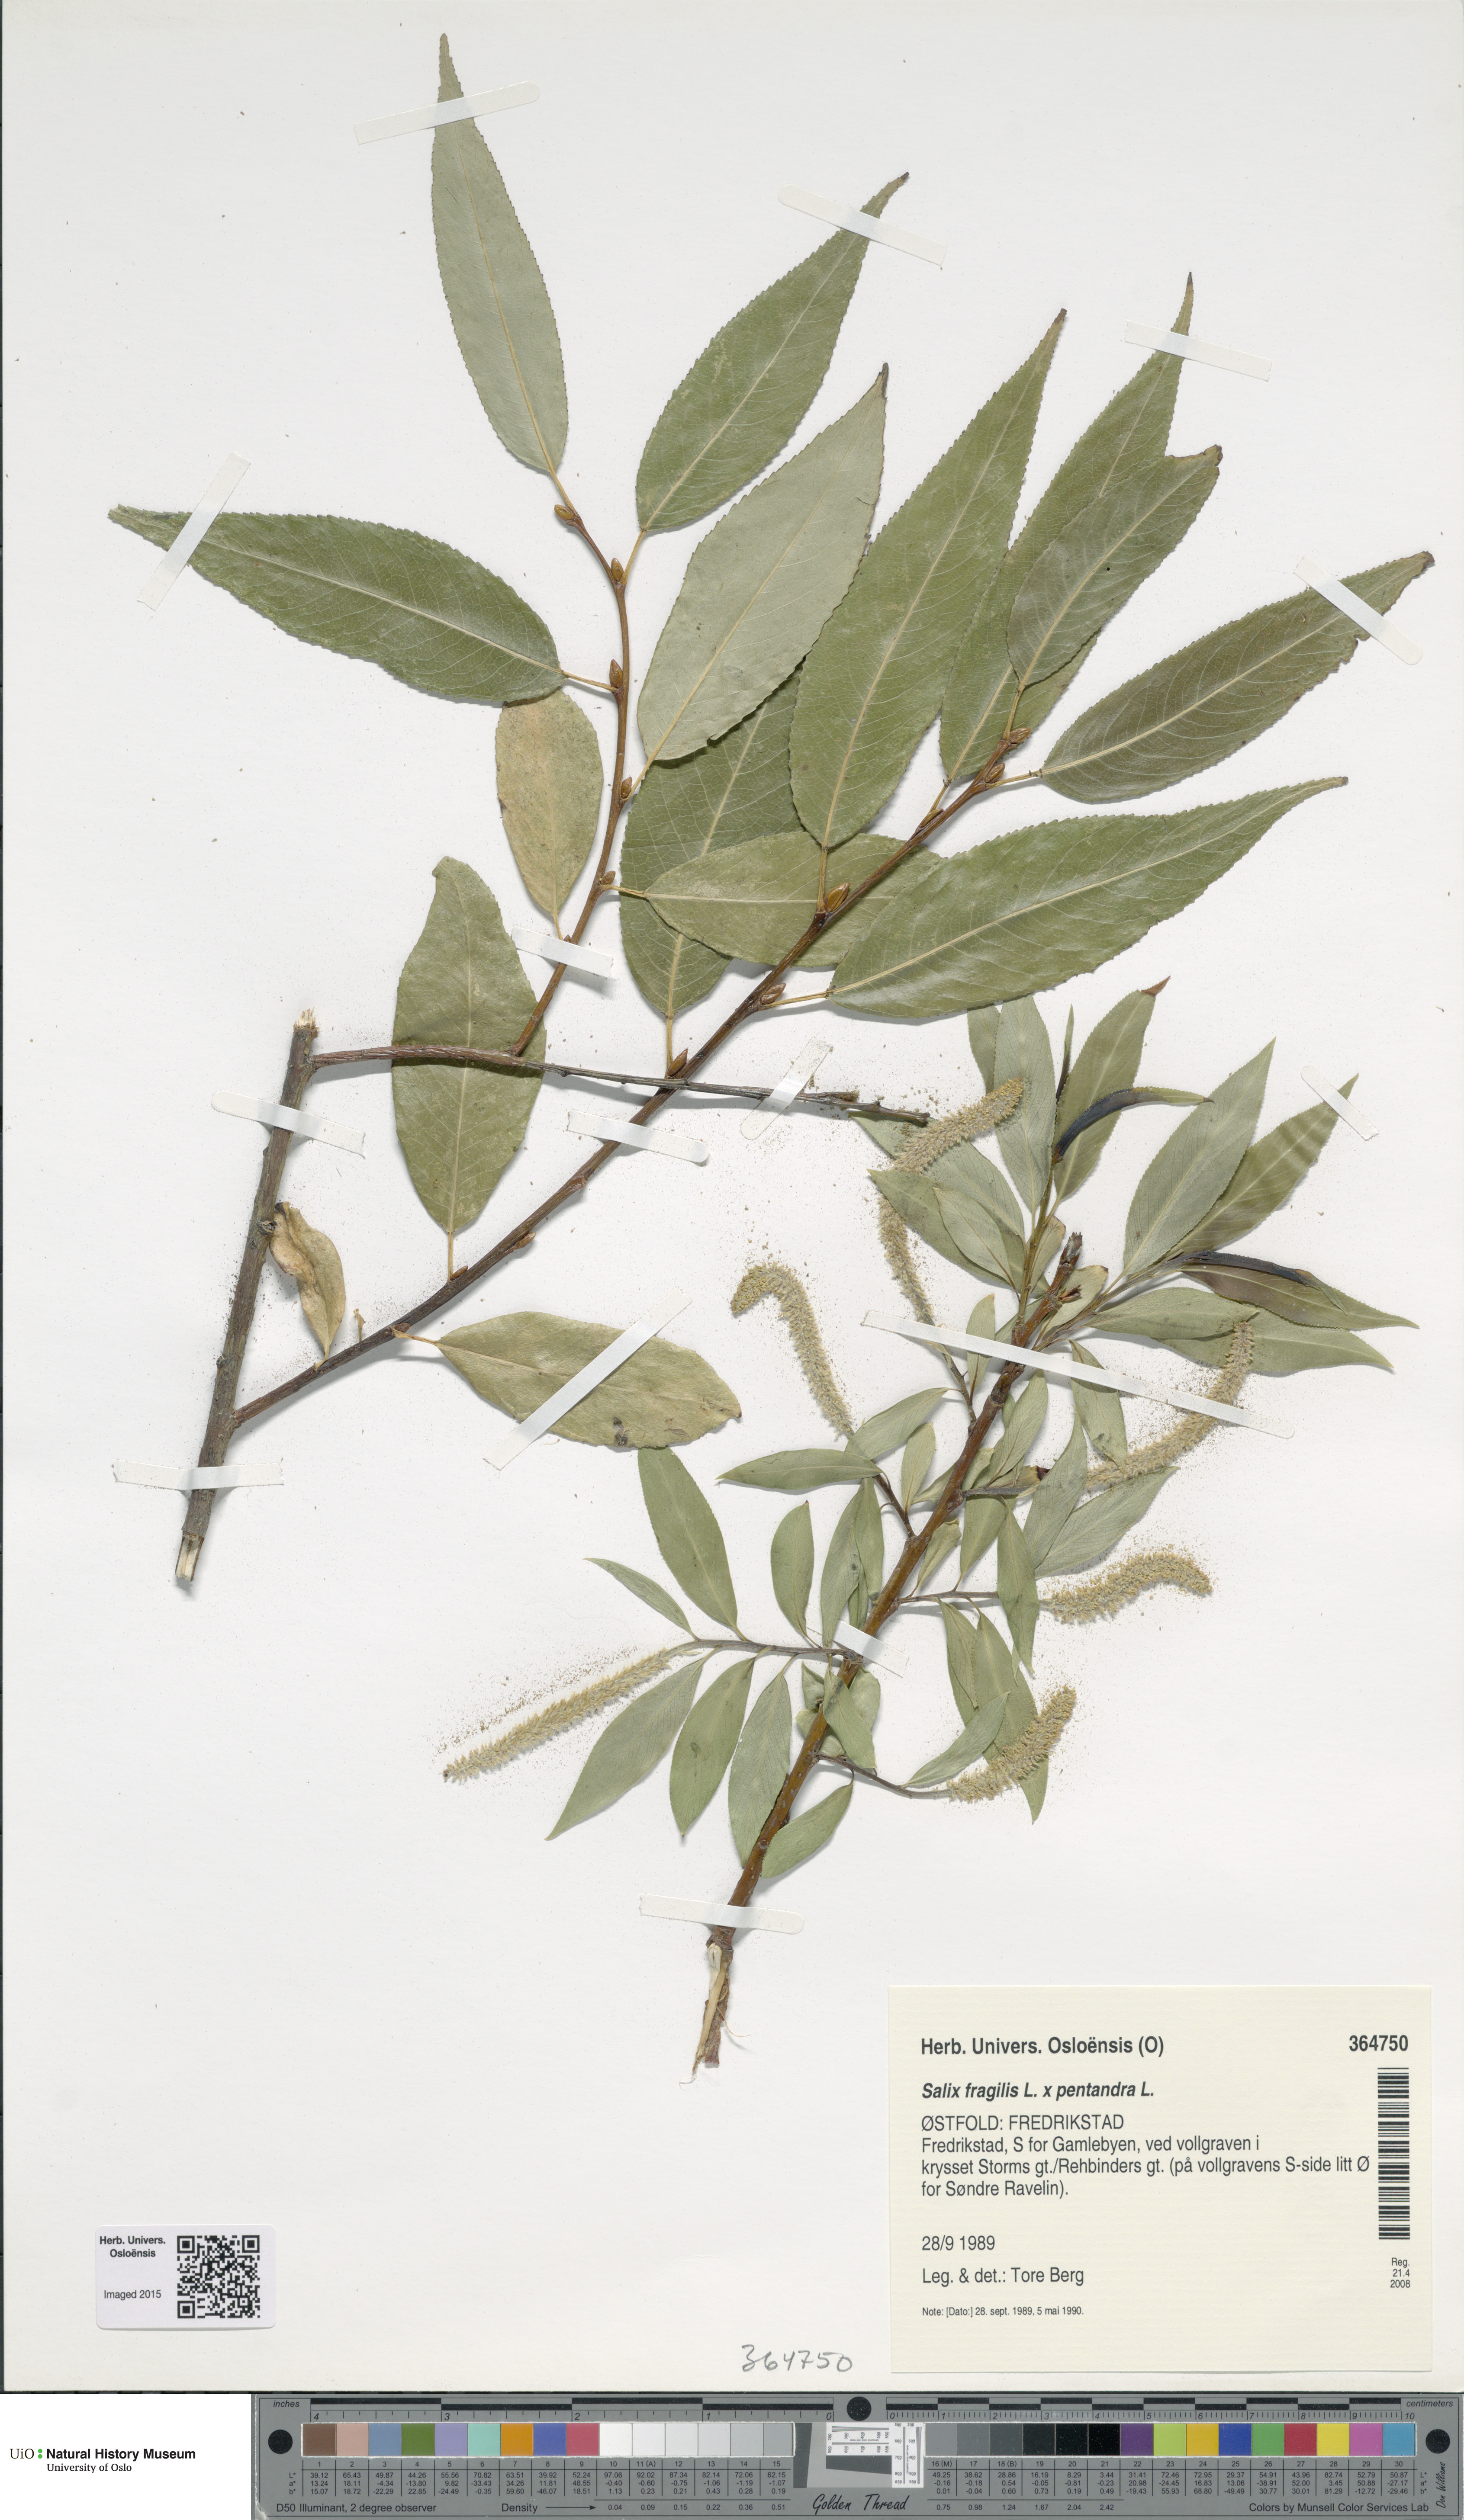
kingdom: Plantae
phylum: Tracheophyta
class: Magnoliopsida
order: Malpighiales
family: Salicaceae
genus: Salix
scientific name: Salix
